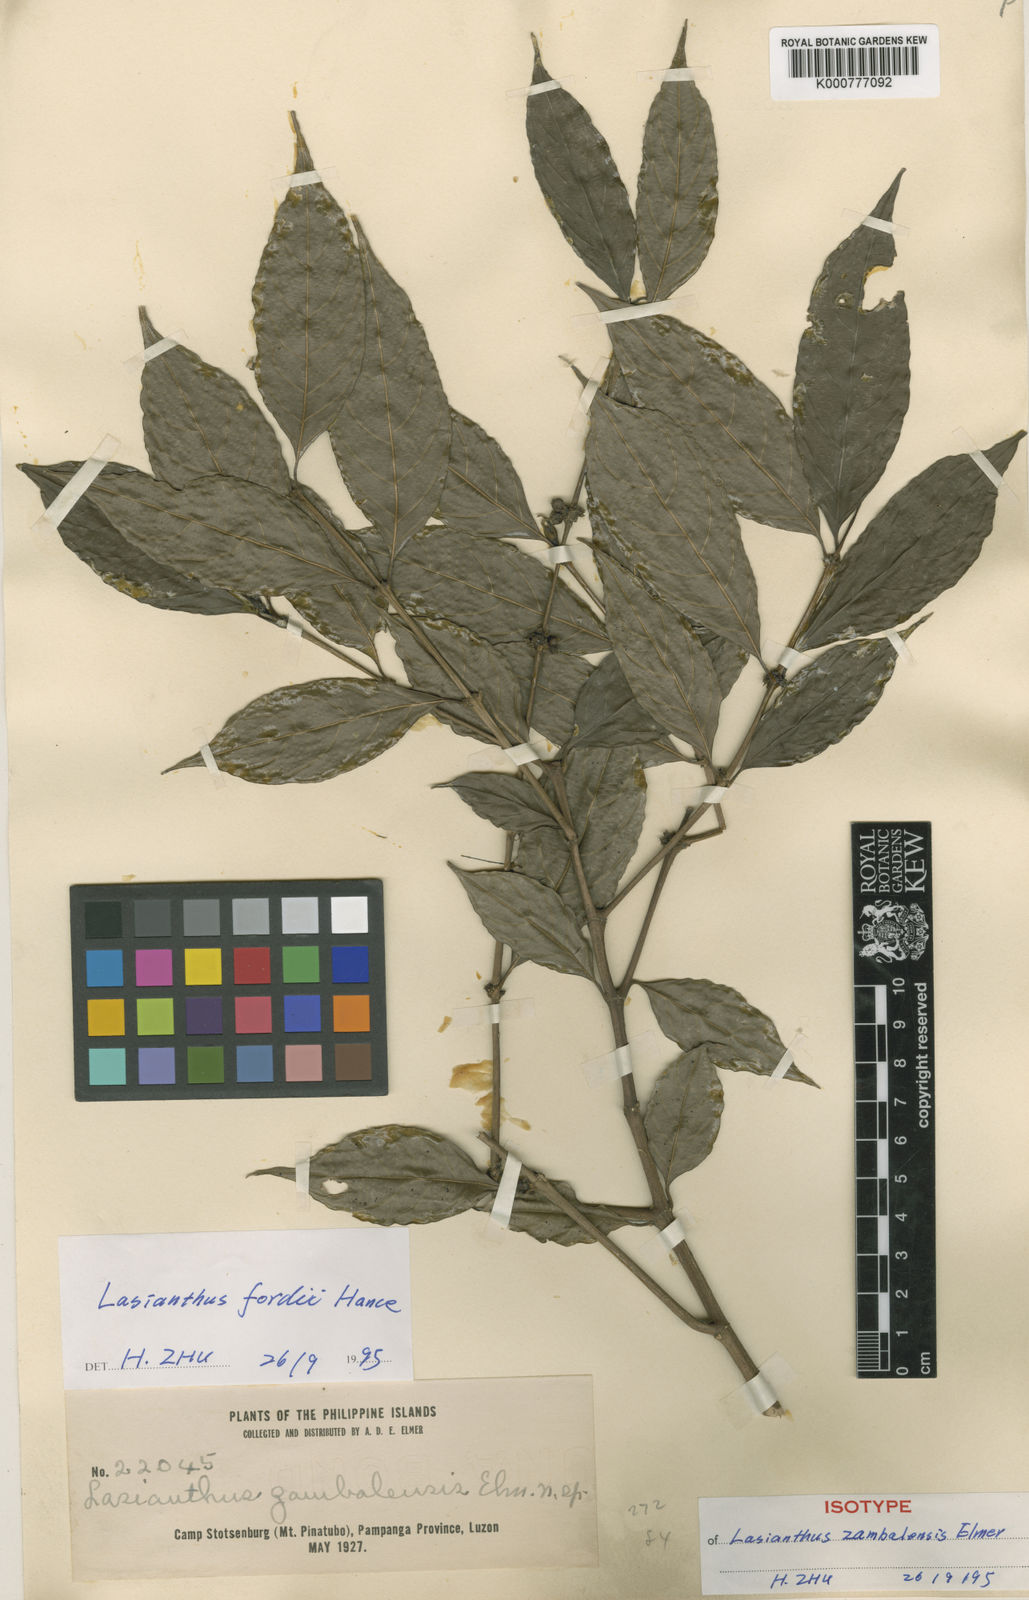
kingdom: Plantae
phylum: Tracheophyta
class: Magnoliopsida
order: Gentianales
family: Rubiaceae
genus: Lasianthus
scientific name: Lasianthus fordii
